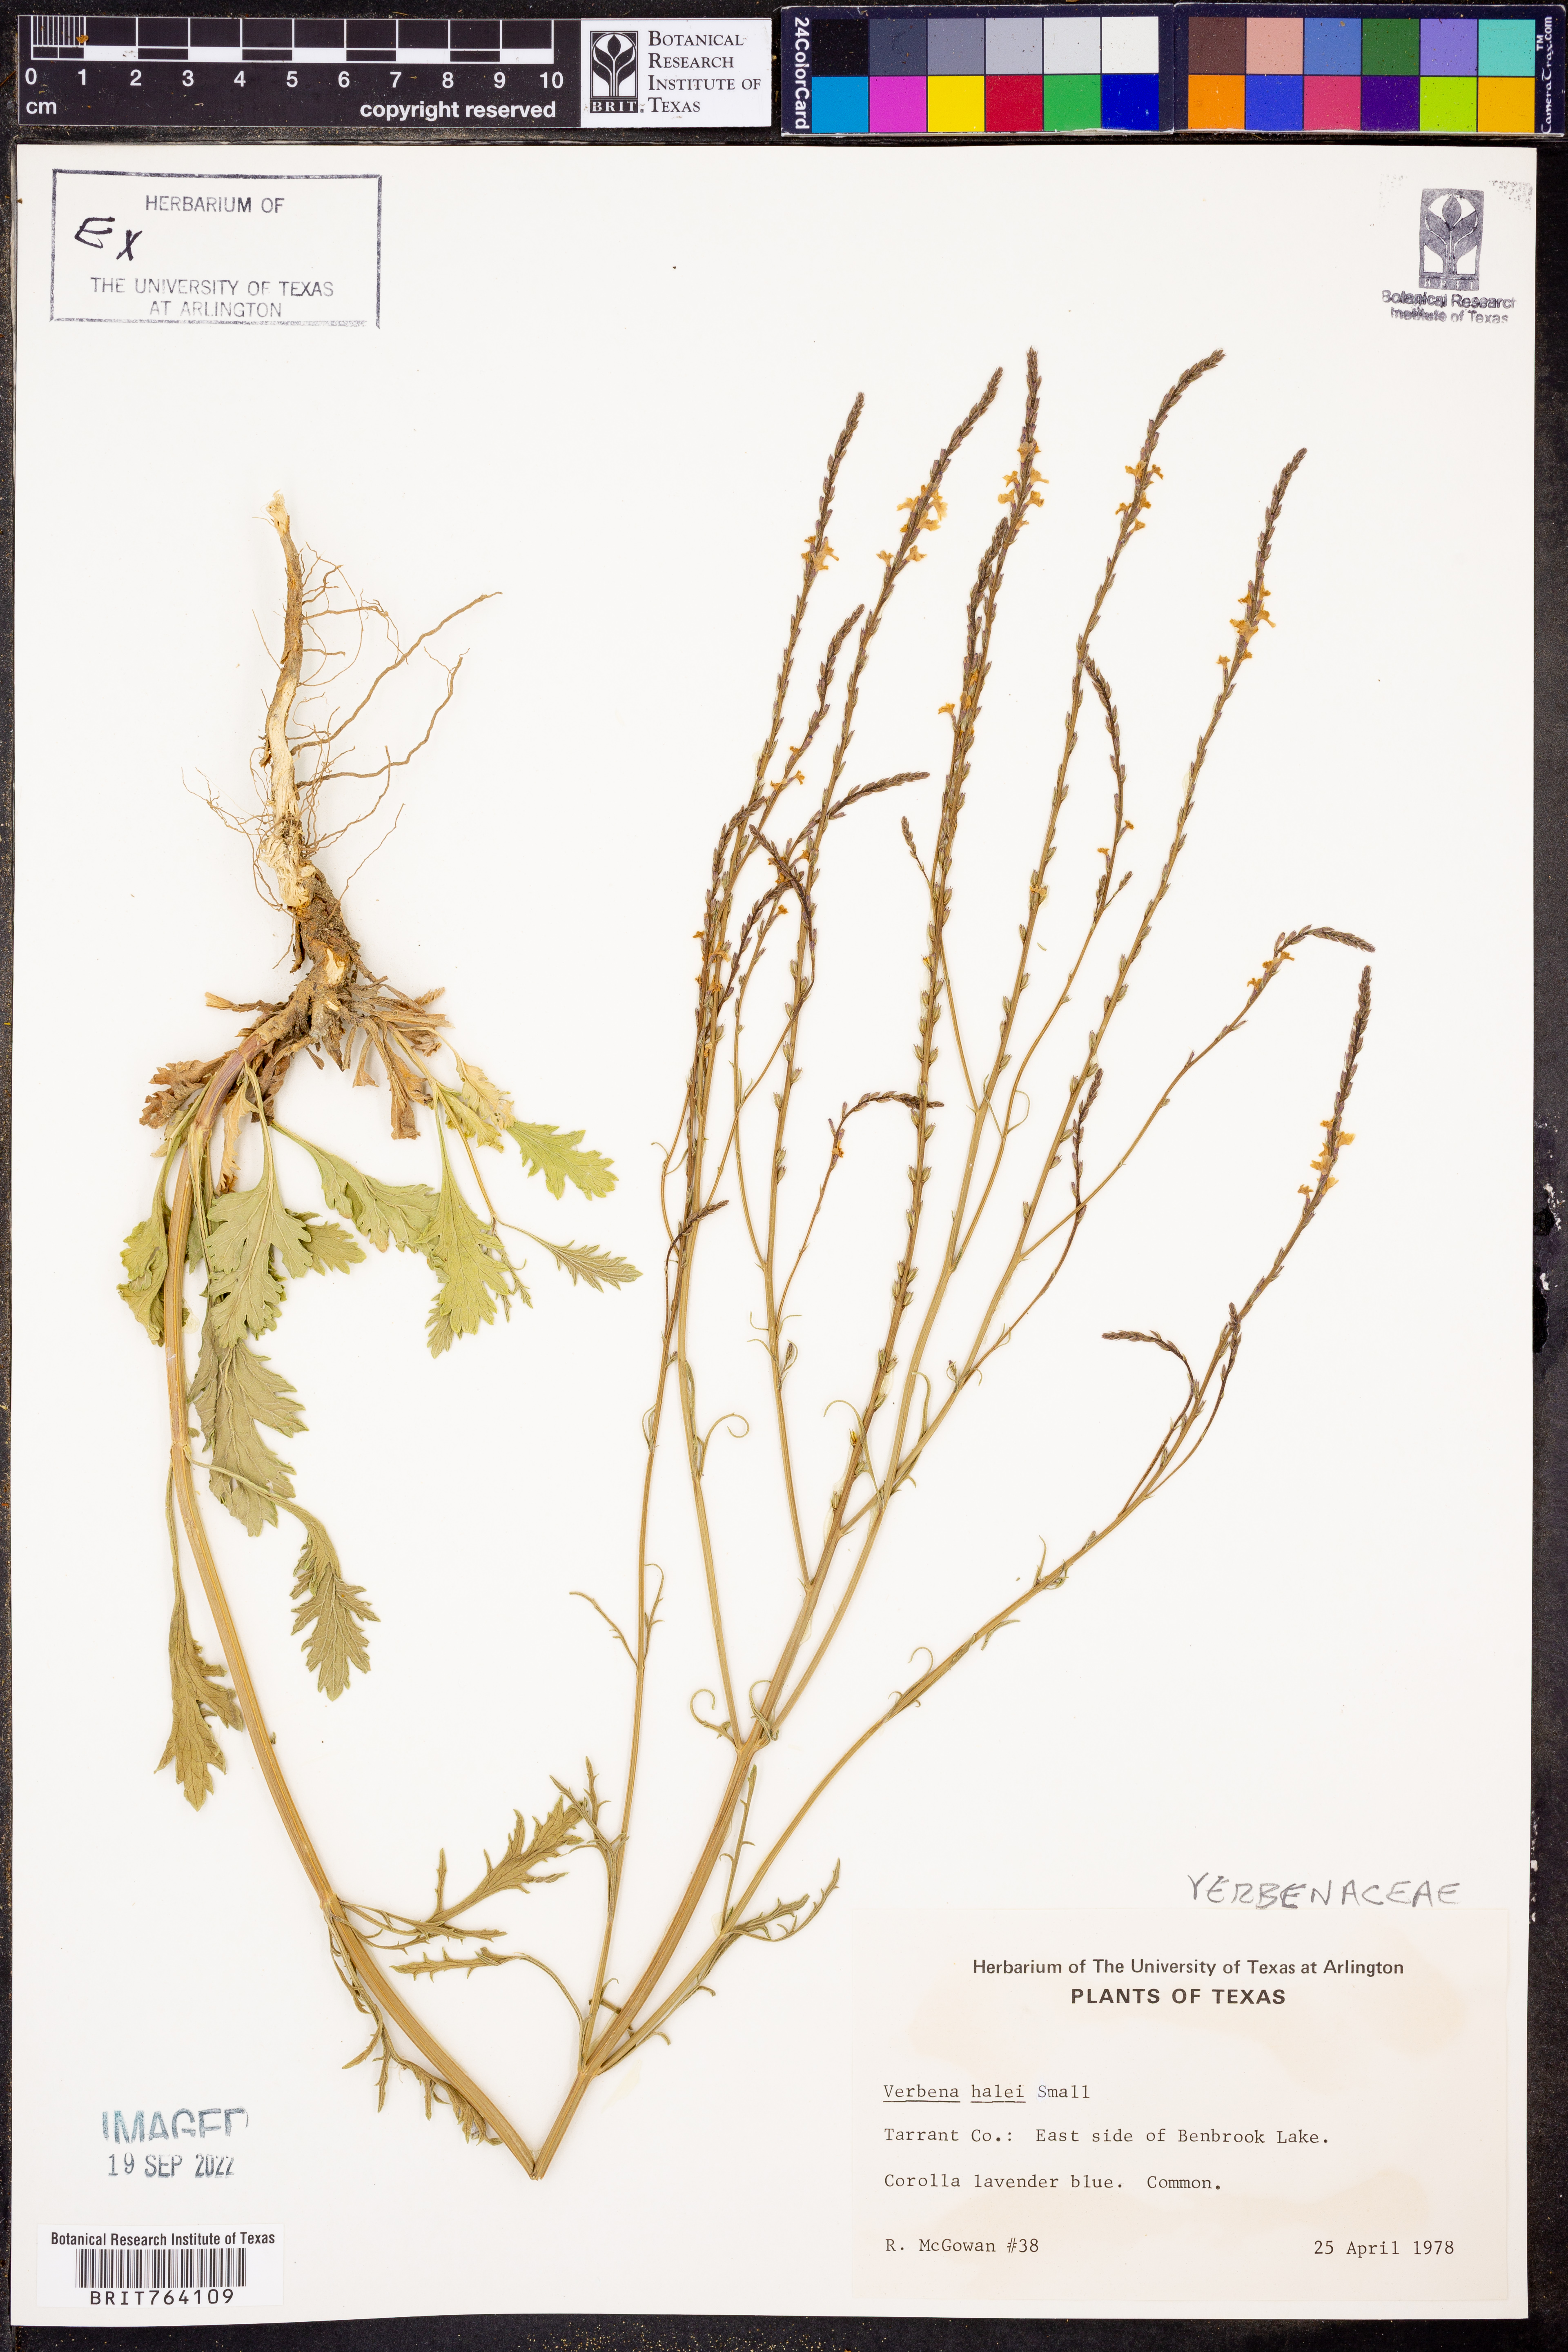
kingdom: Plantae
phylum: Tracheophyta
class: Magnoliopsida
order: Lamiales
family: Verbenaceae
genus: Verbena
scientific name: Verbena halei
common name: Texas vervain
